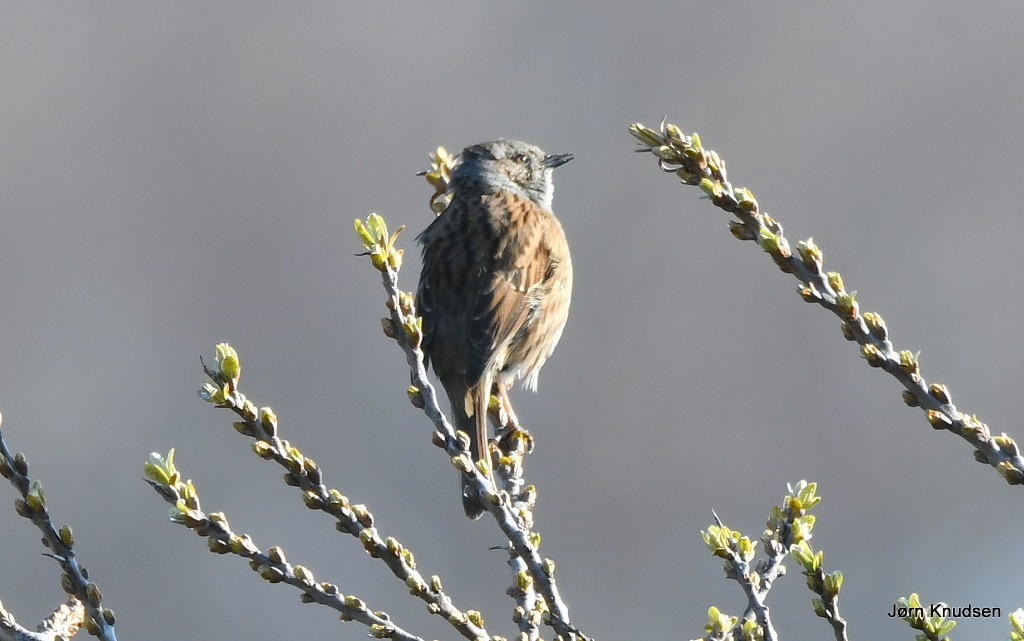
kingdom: Animalia
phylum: Chordata
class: Aves
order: Passeriformes
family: Prunellidae
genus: Prunella
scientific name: Prunella modularis
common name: Jernspurv
